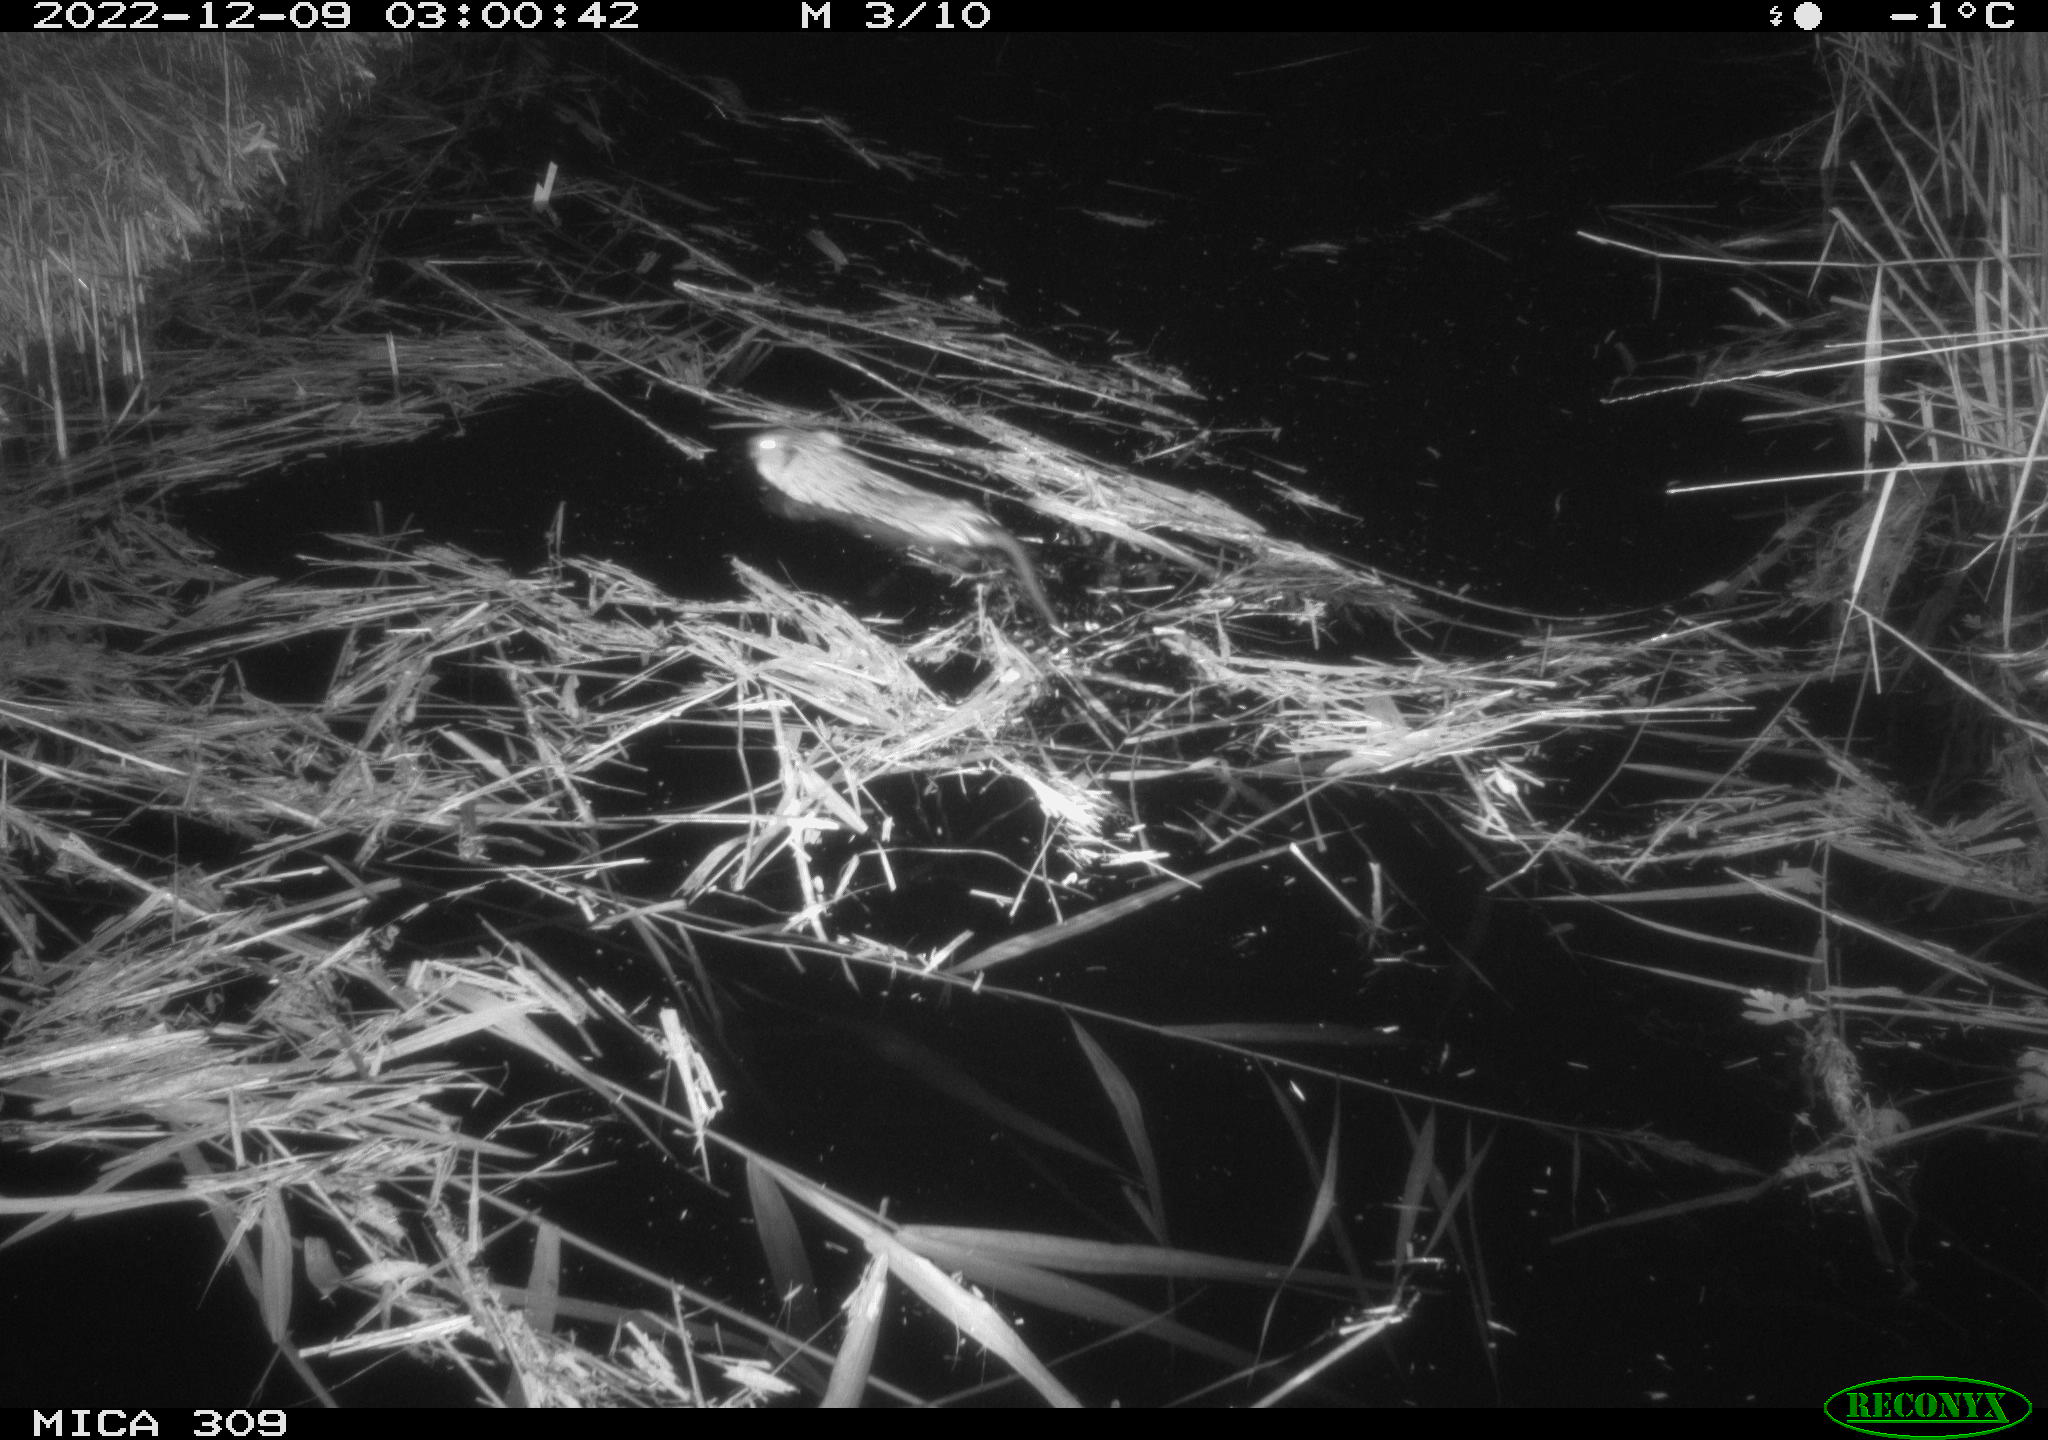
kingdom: Animalia
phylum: Chordata
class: Mammalia
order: Rodentia
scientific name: Rodentia
